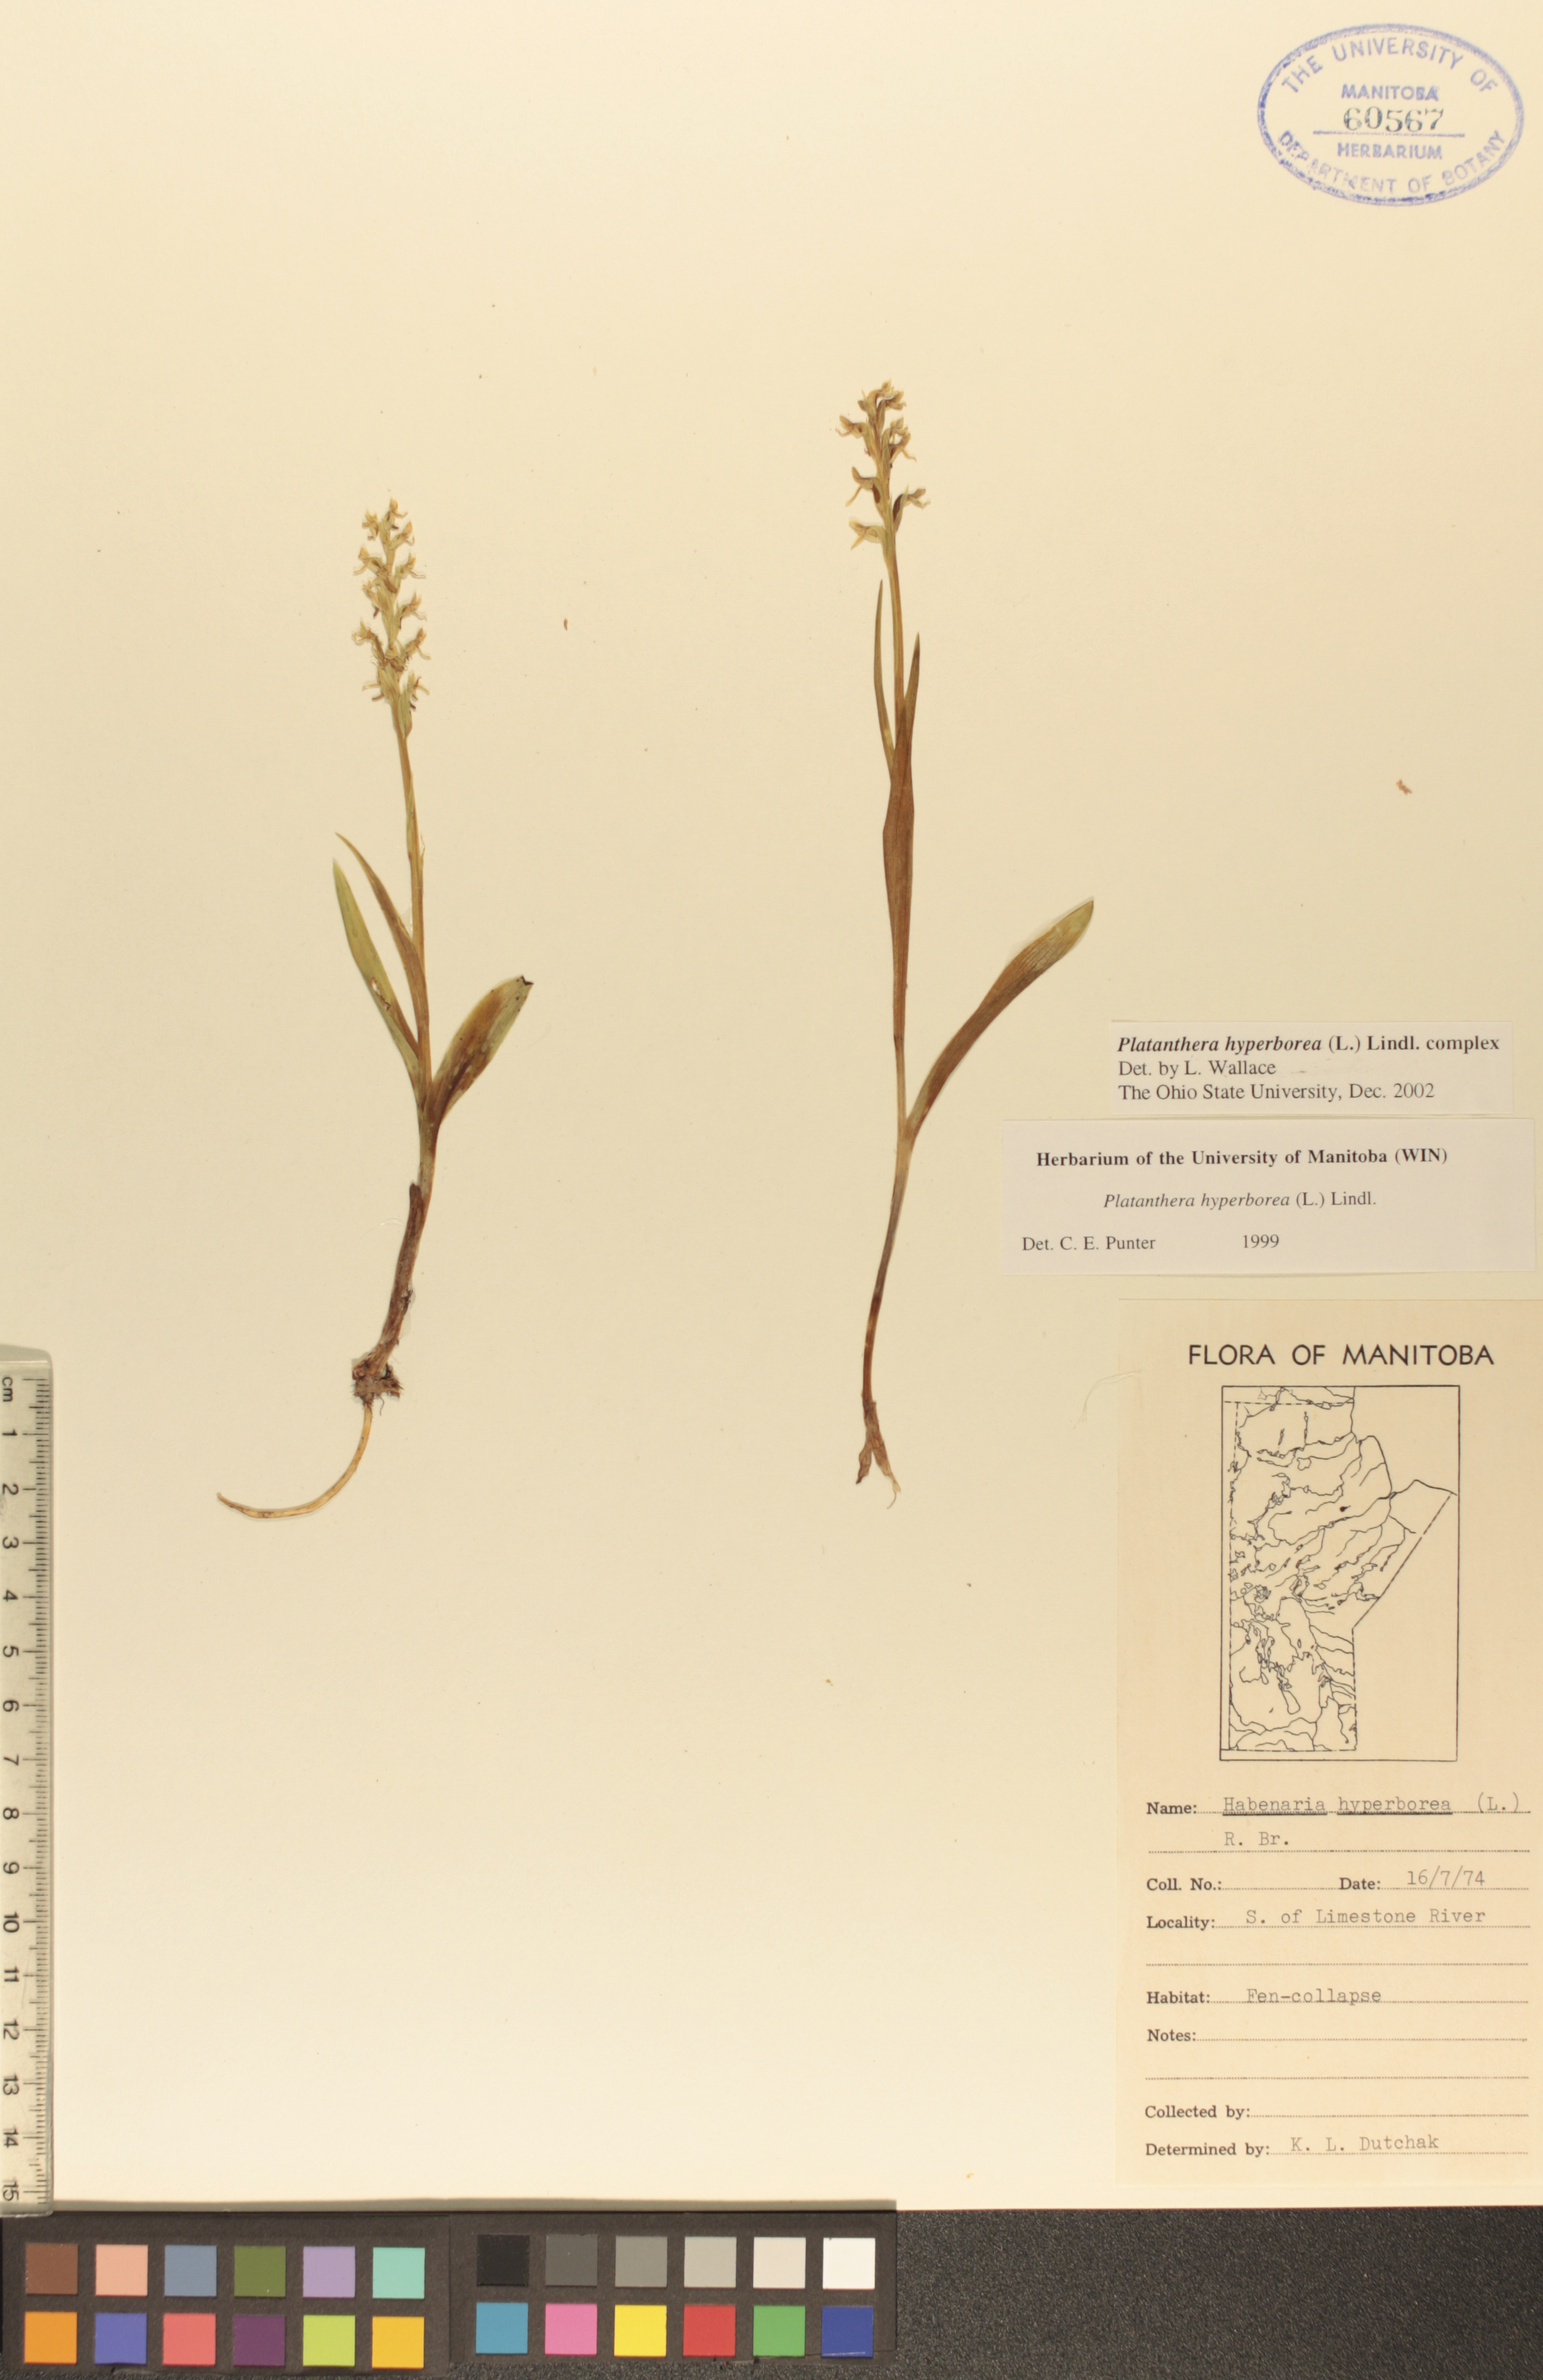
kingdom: Plantae
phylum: Tracheophyta
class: Liliopsida
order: Asparagales
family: Orchidaceae
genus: Platanthera
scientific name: Platanthera hyperborea
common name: Northern green orchid
